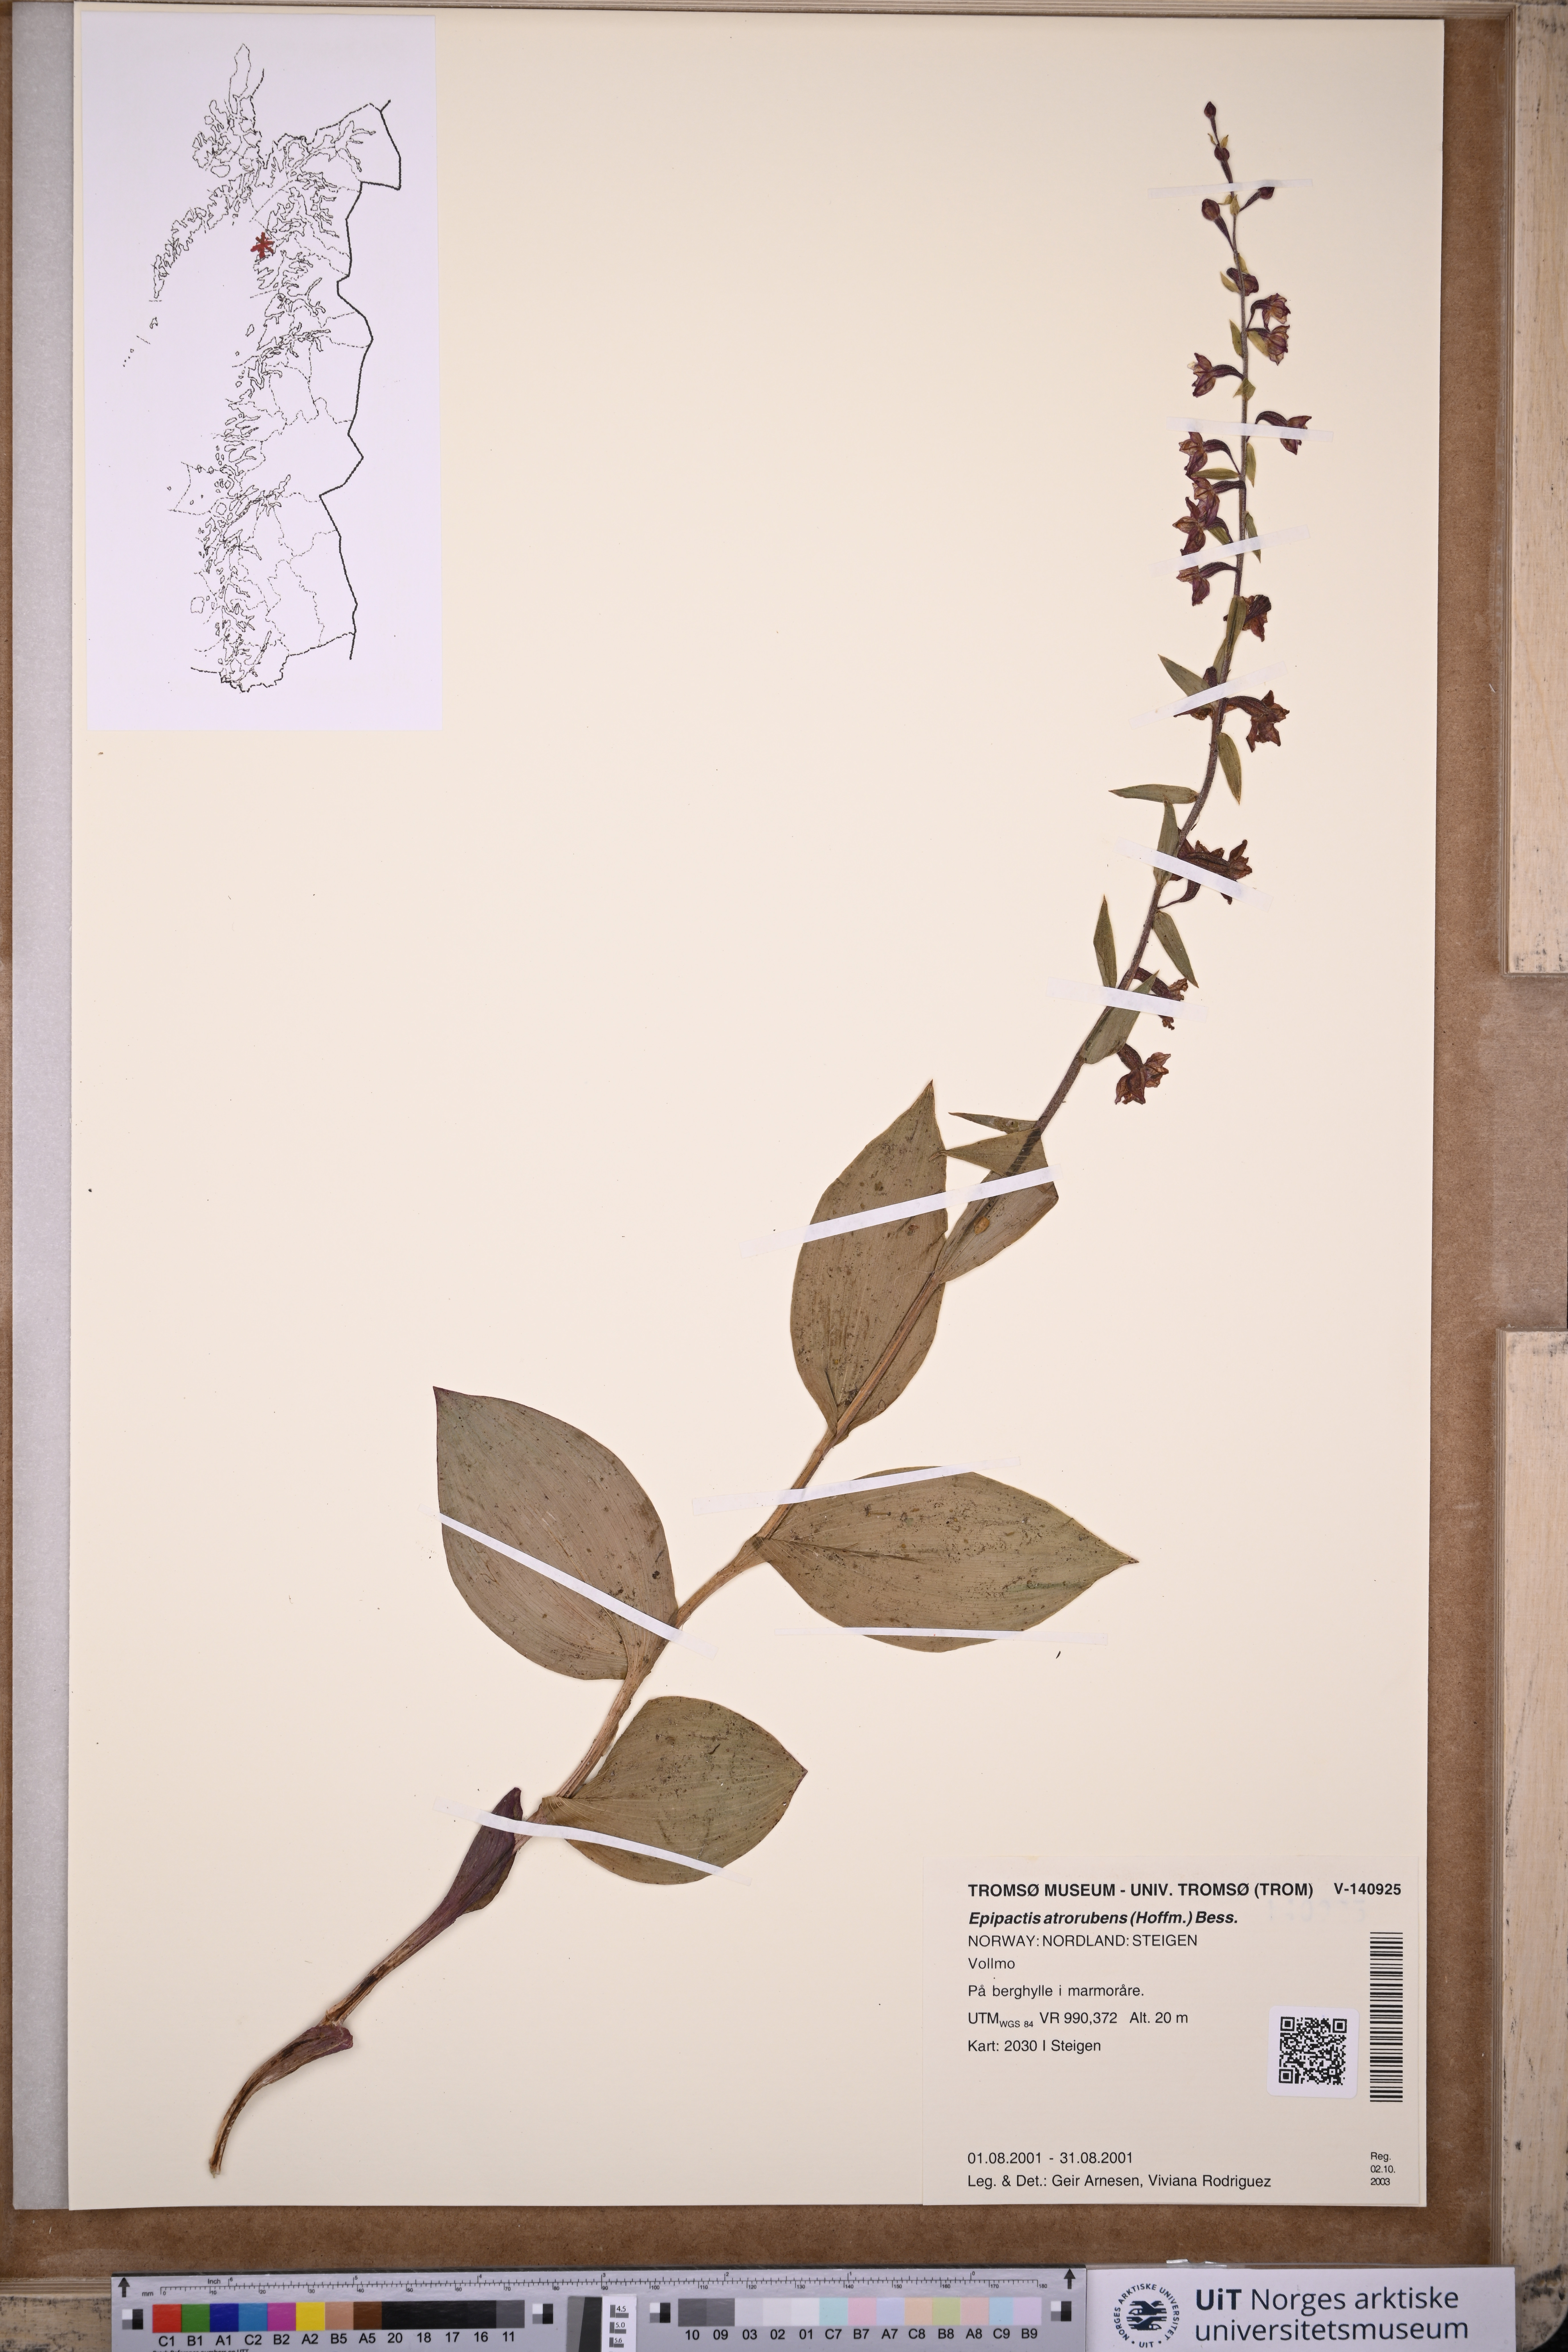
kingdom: Plantae
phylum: Tracheophyta
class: Liliopsida
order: Asparagales
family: Orchidaceae
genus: Epipactis
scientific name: Epipactis atrorubens
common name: Dark-red helleborine
